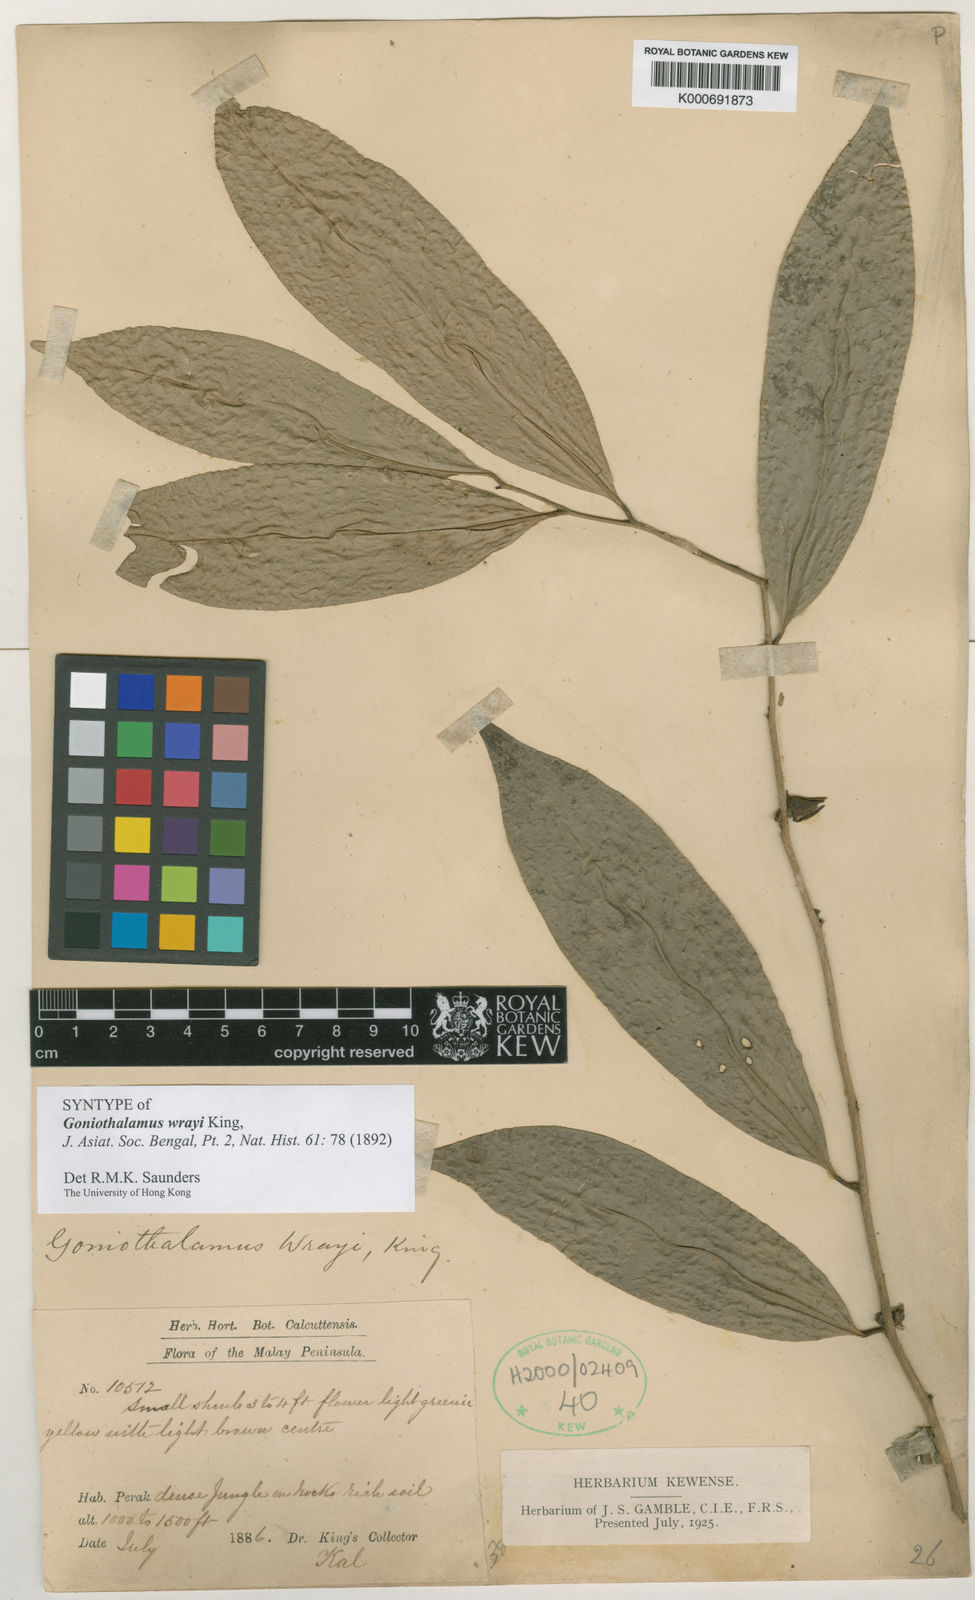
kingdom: Plantae
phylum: Tracheophyta
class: Magnoliopsida
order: Magnoliales
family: Annonaceae
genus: Goniothalamus
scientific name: Goniothalamus wrayi
